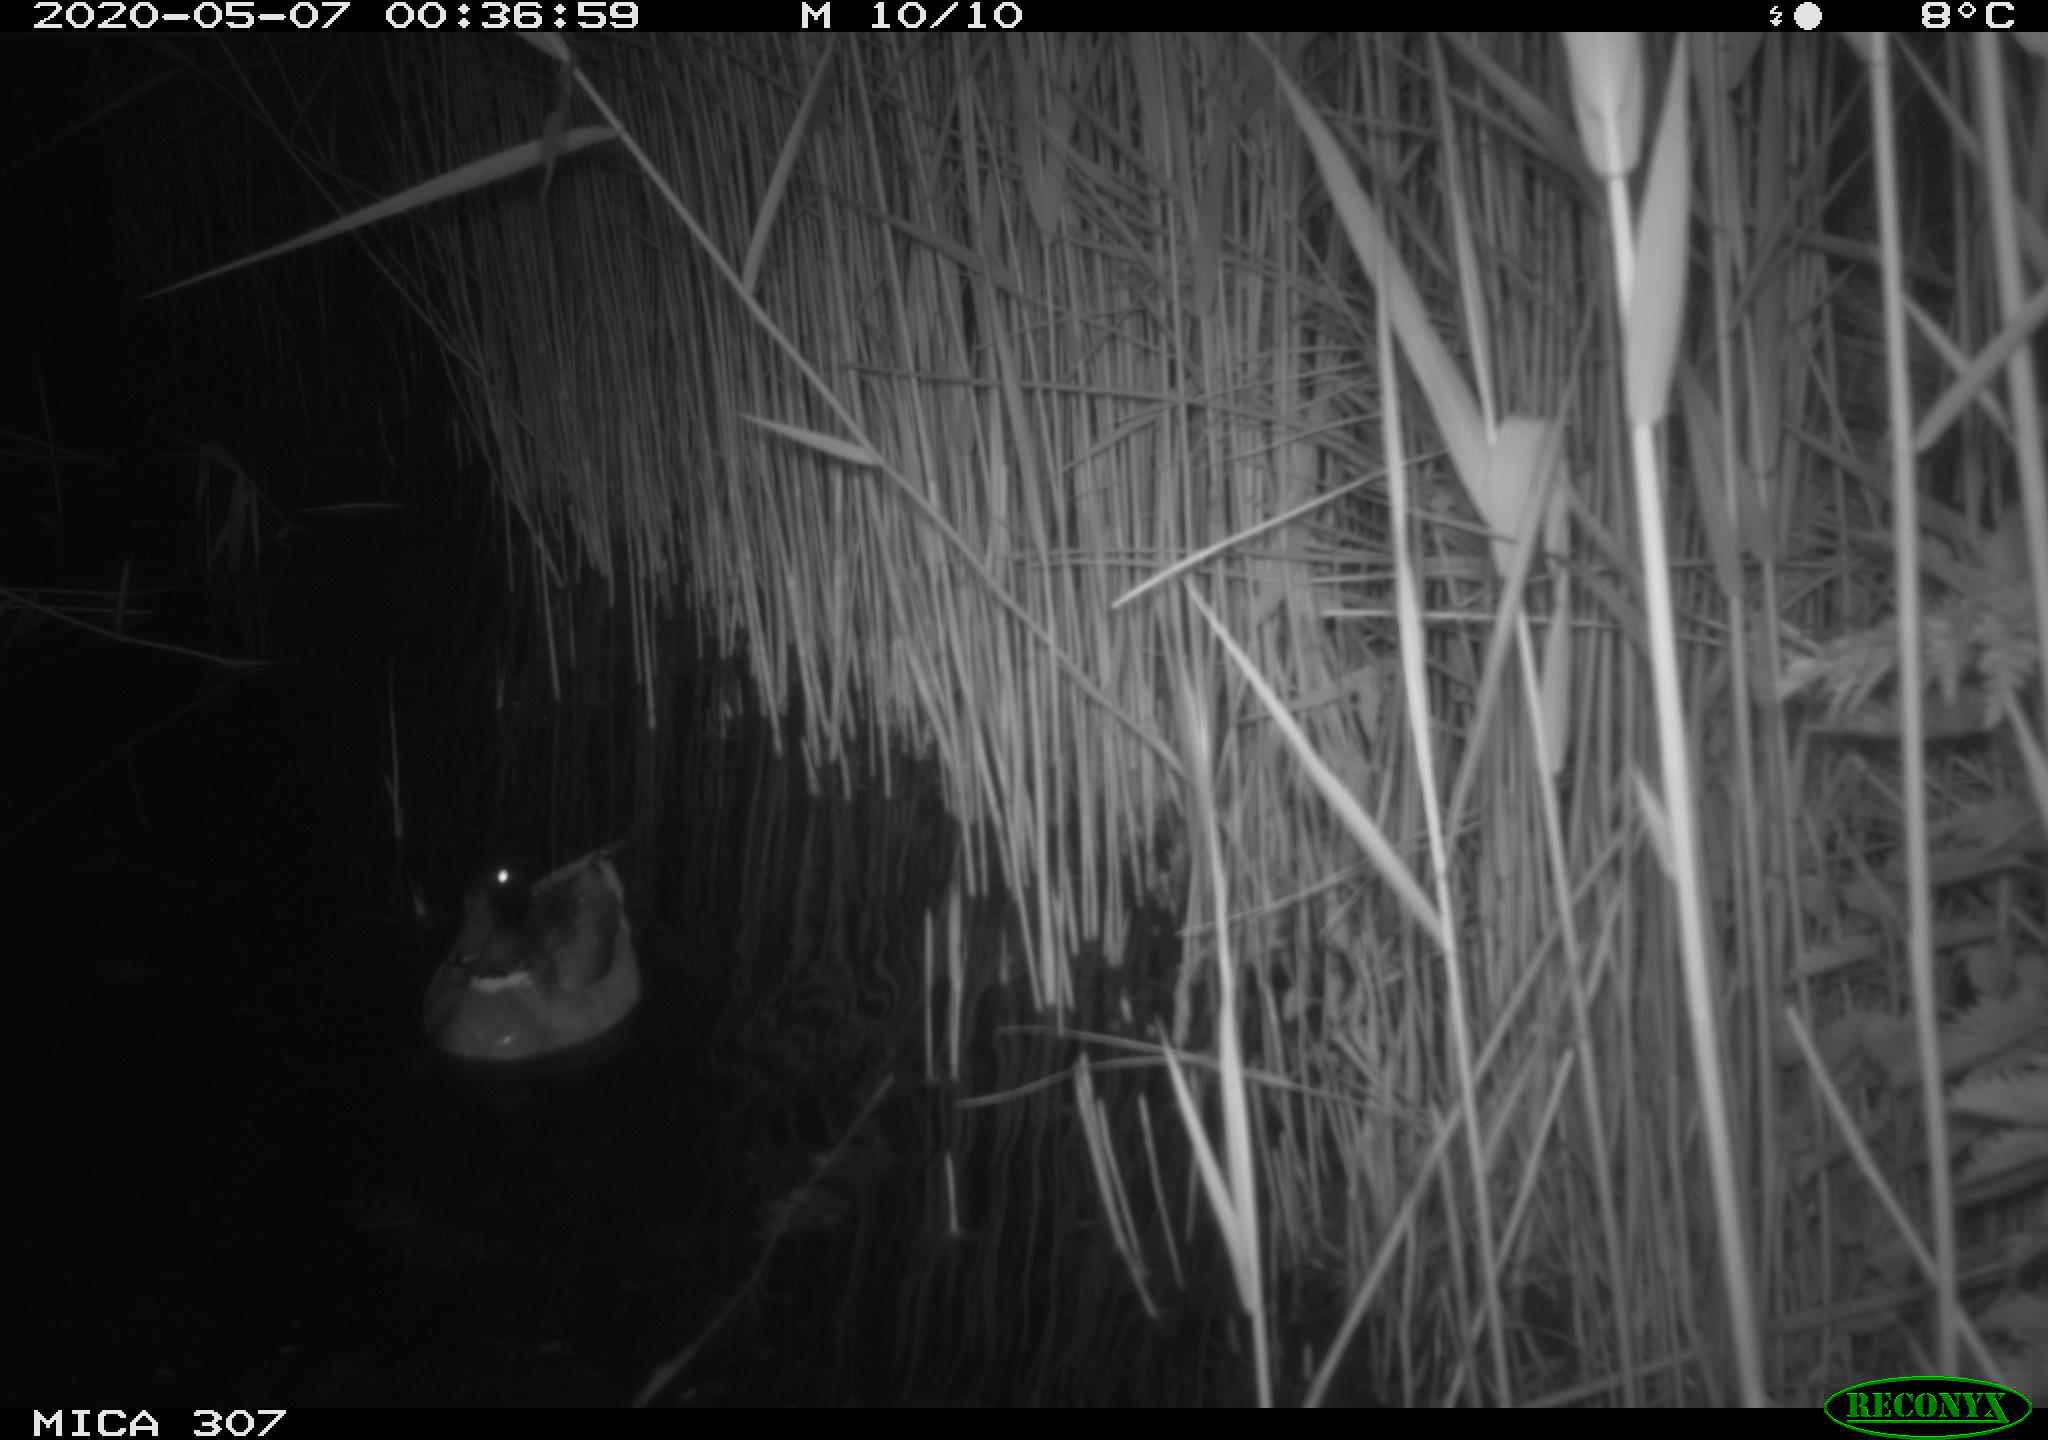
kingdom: Animalia
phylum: Chordata
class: Aves
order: Anseriformes
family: Anatidae
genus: Anas
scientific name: Anas platyrhynchos
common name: Mallard
